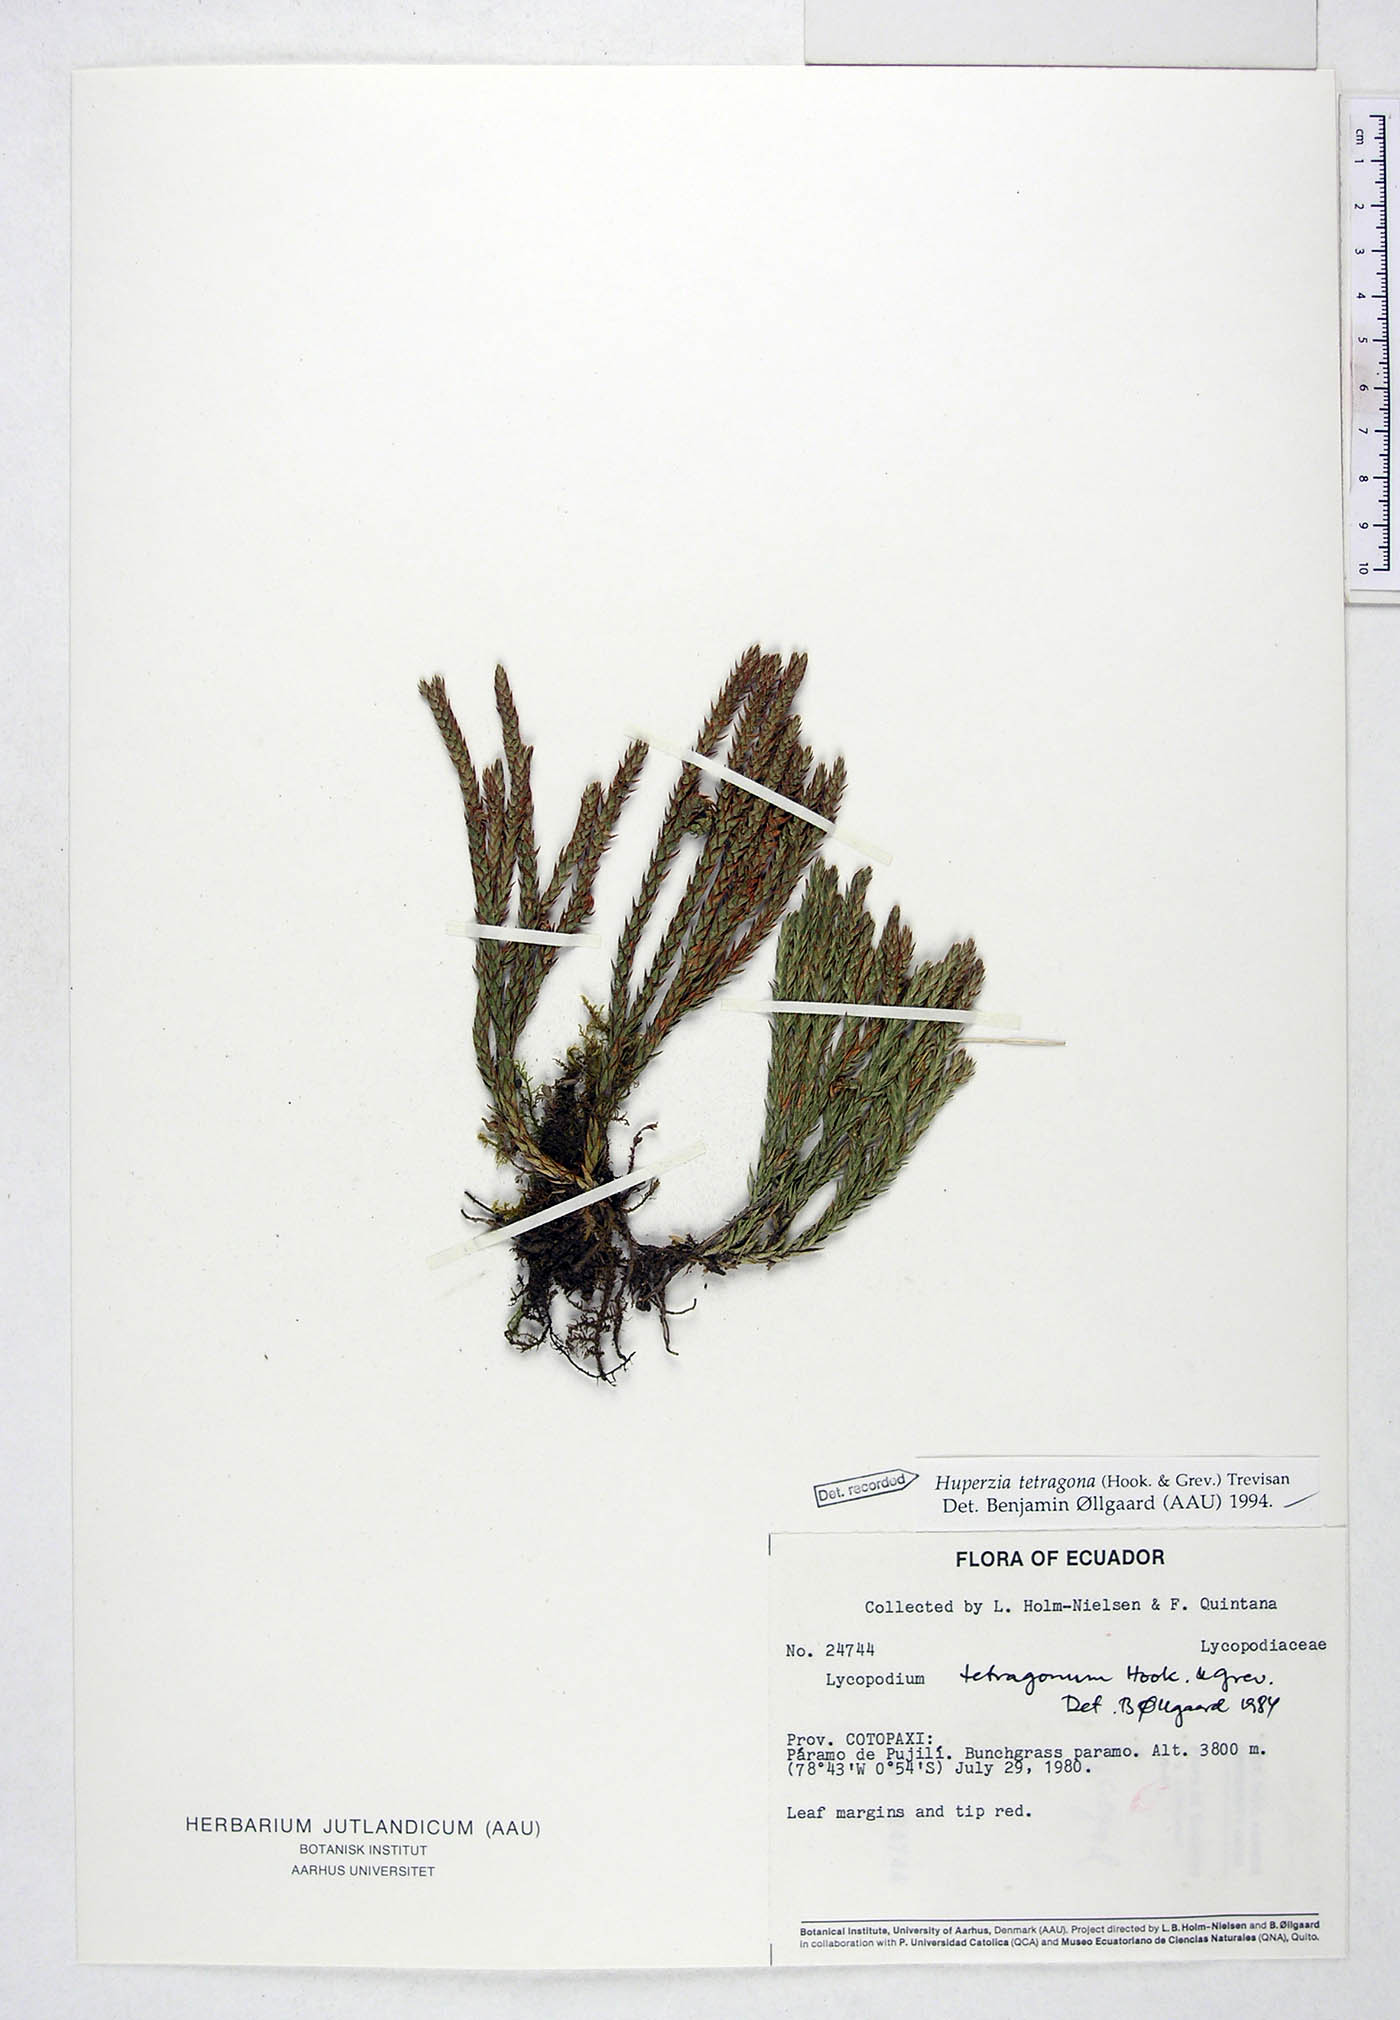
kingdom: Plantae
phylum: Tracheophyta
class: Lycopodiopsida
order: Lycopodiales
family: Lycopodiaceae
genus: Phlegmariurus
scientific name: Phlegmariurus tetragonus
